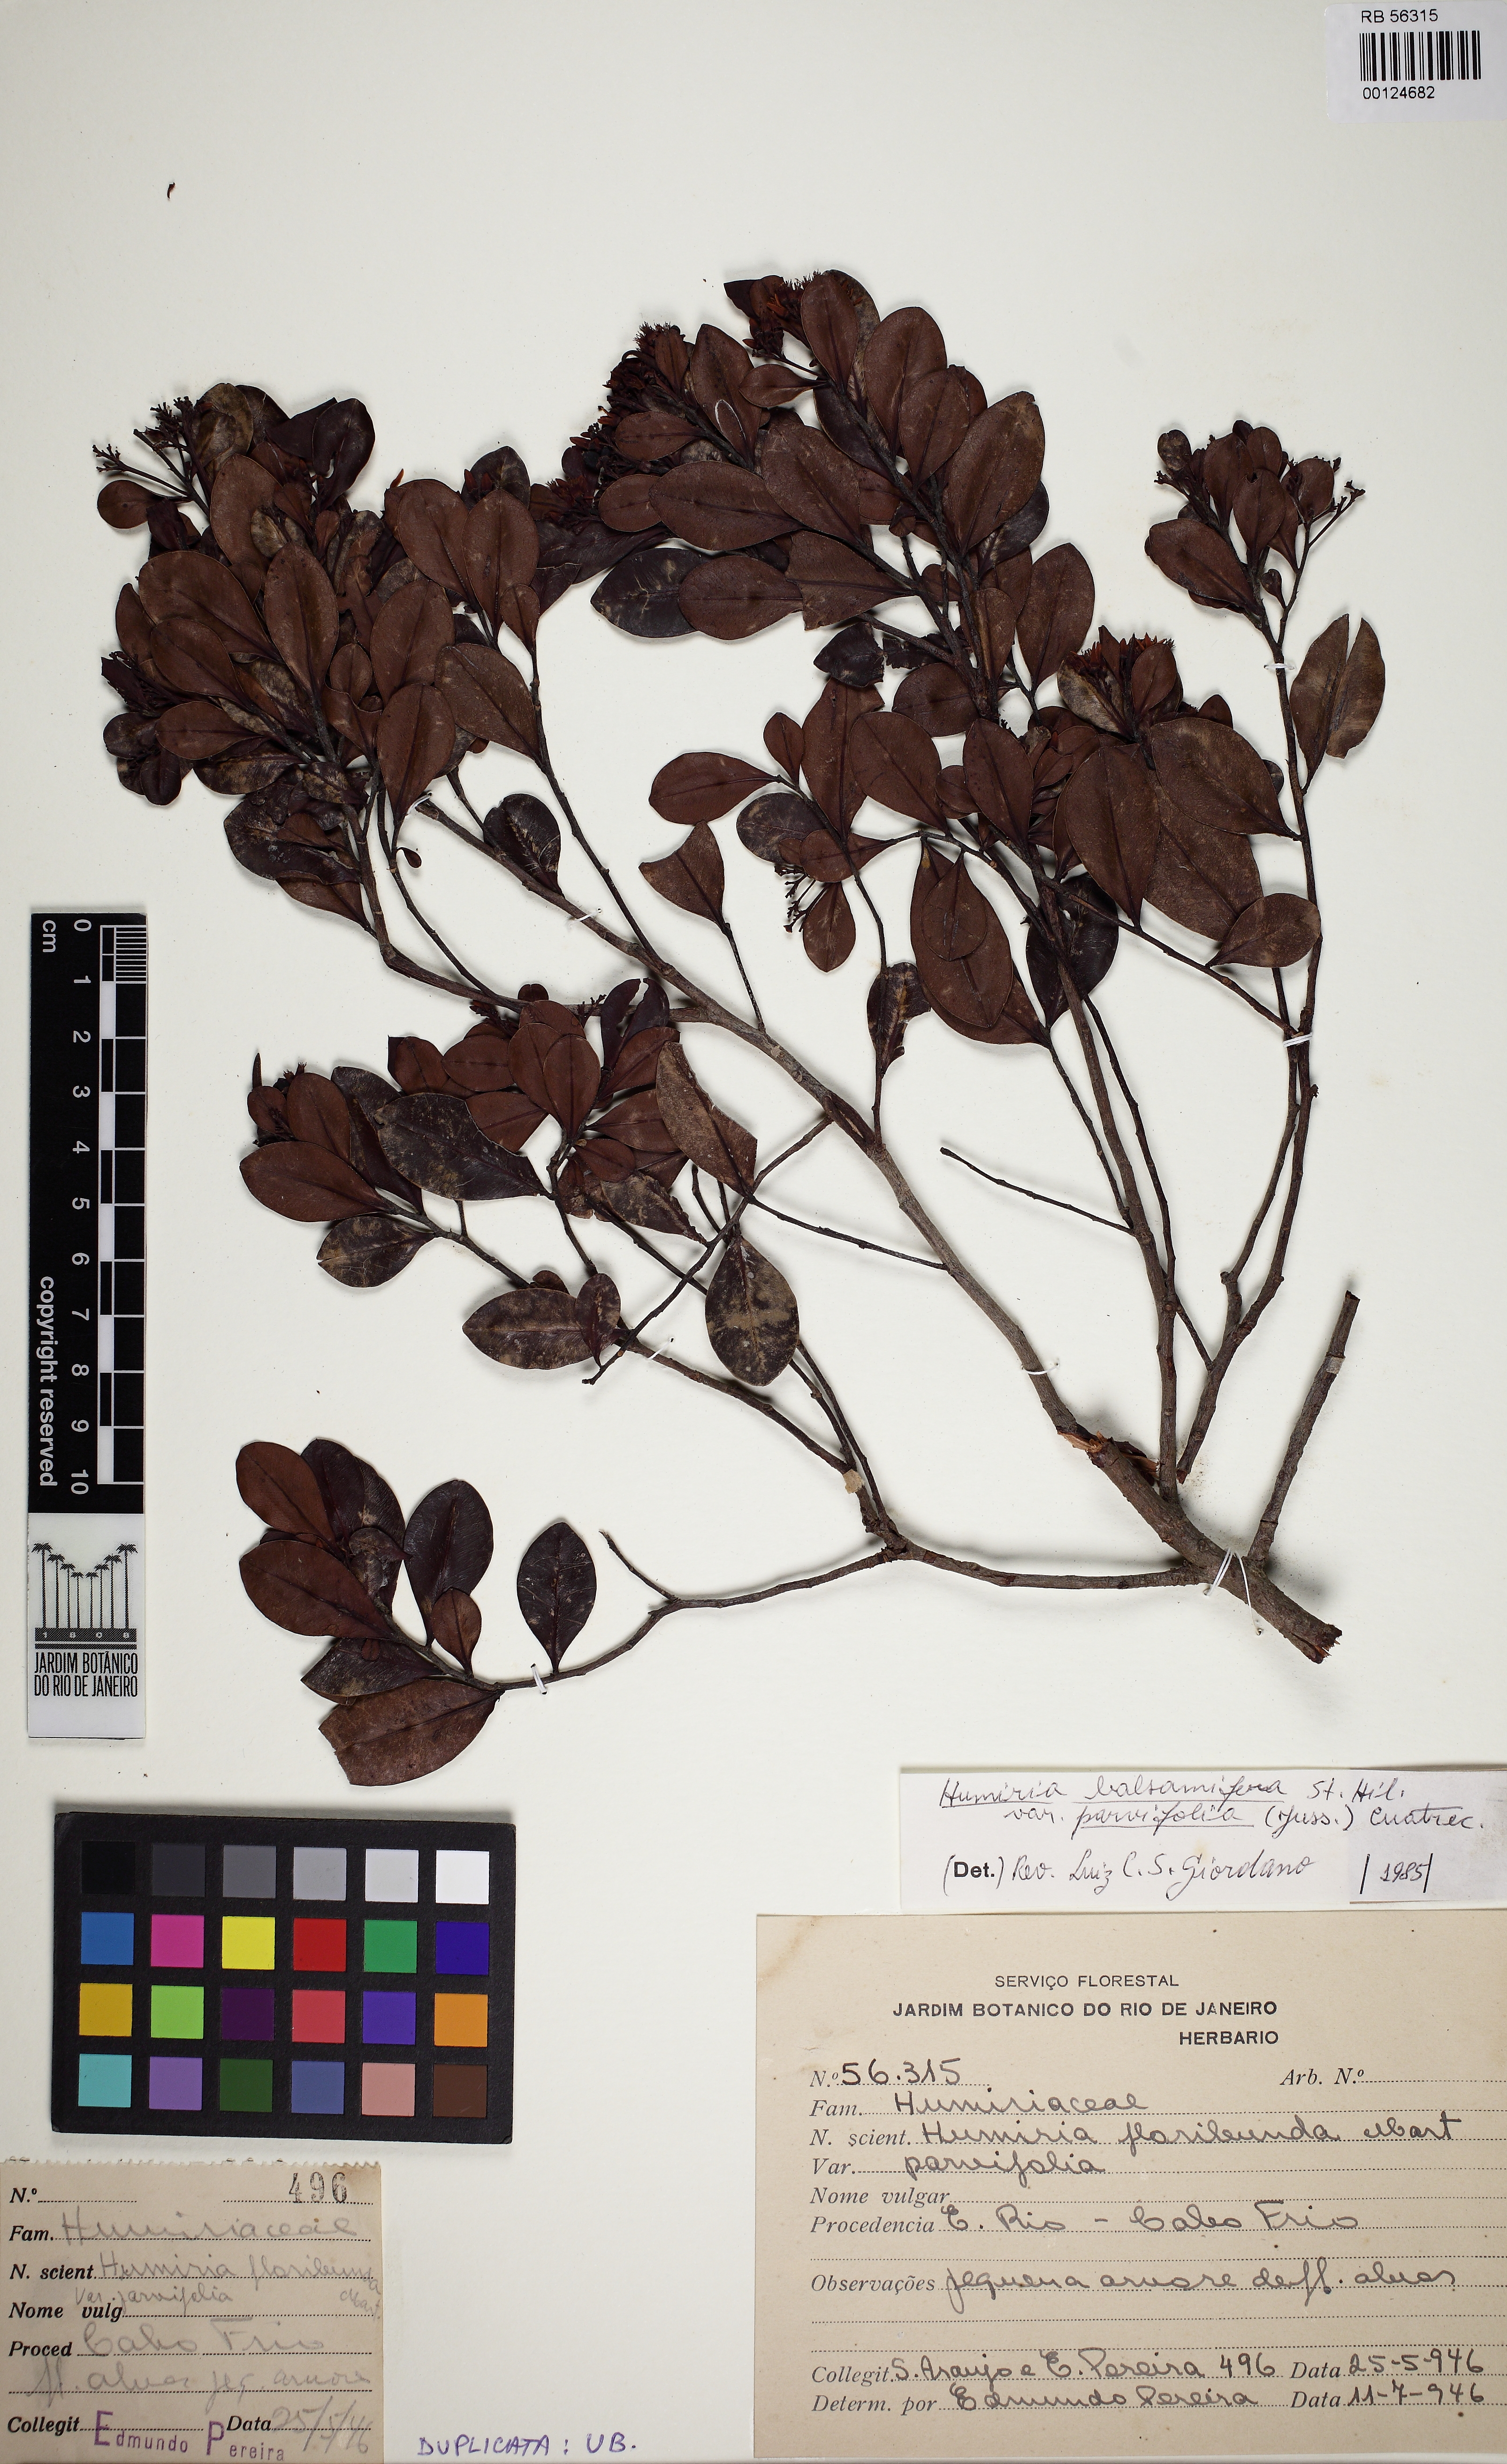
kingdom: Plantae
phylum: Tracheophyta
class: Magnoliopsida
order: Malpighiales
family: Humiriaceae
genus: Humiria
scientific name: Humiria parvifolia
